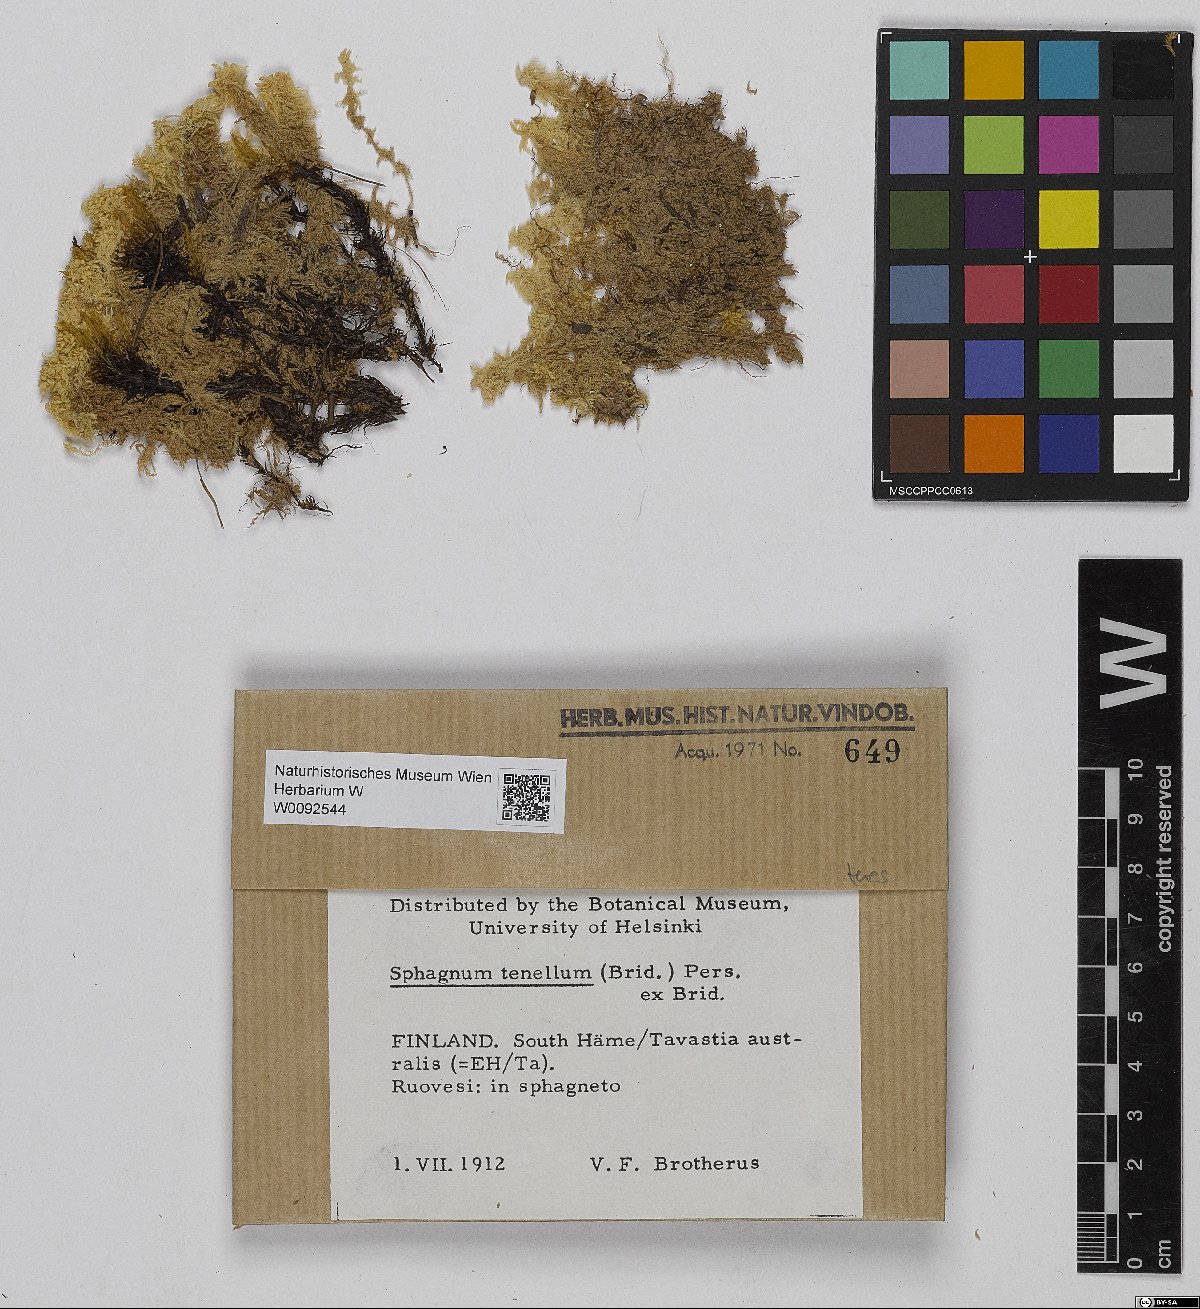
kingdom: Plantae
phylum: Bryophyta
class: Sphagnopsida
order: Sphagnales
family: Sphagnaceae
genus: Sphagnum
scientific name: Sphagnum teres
